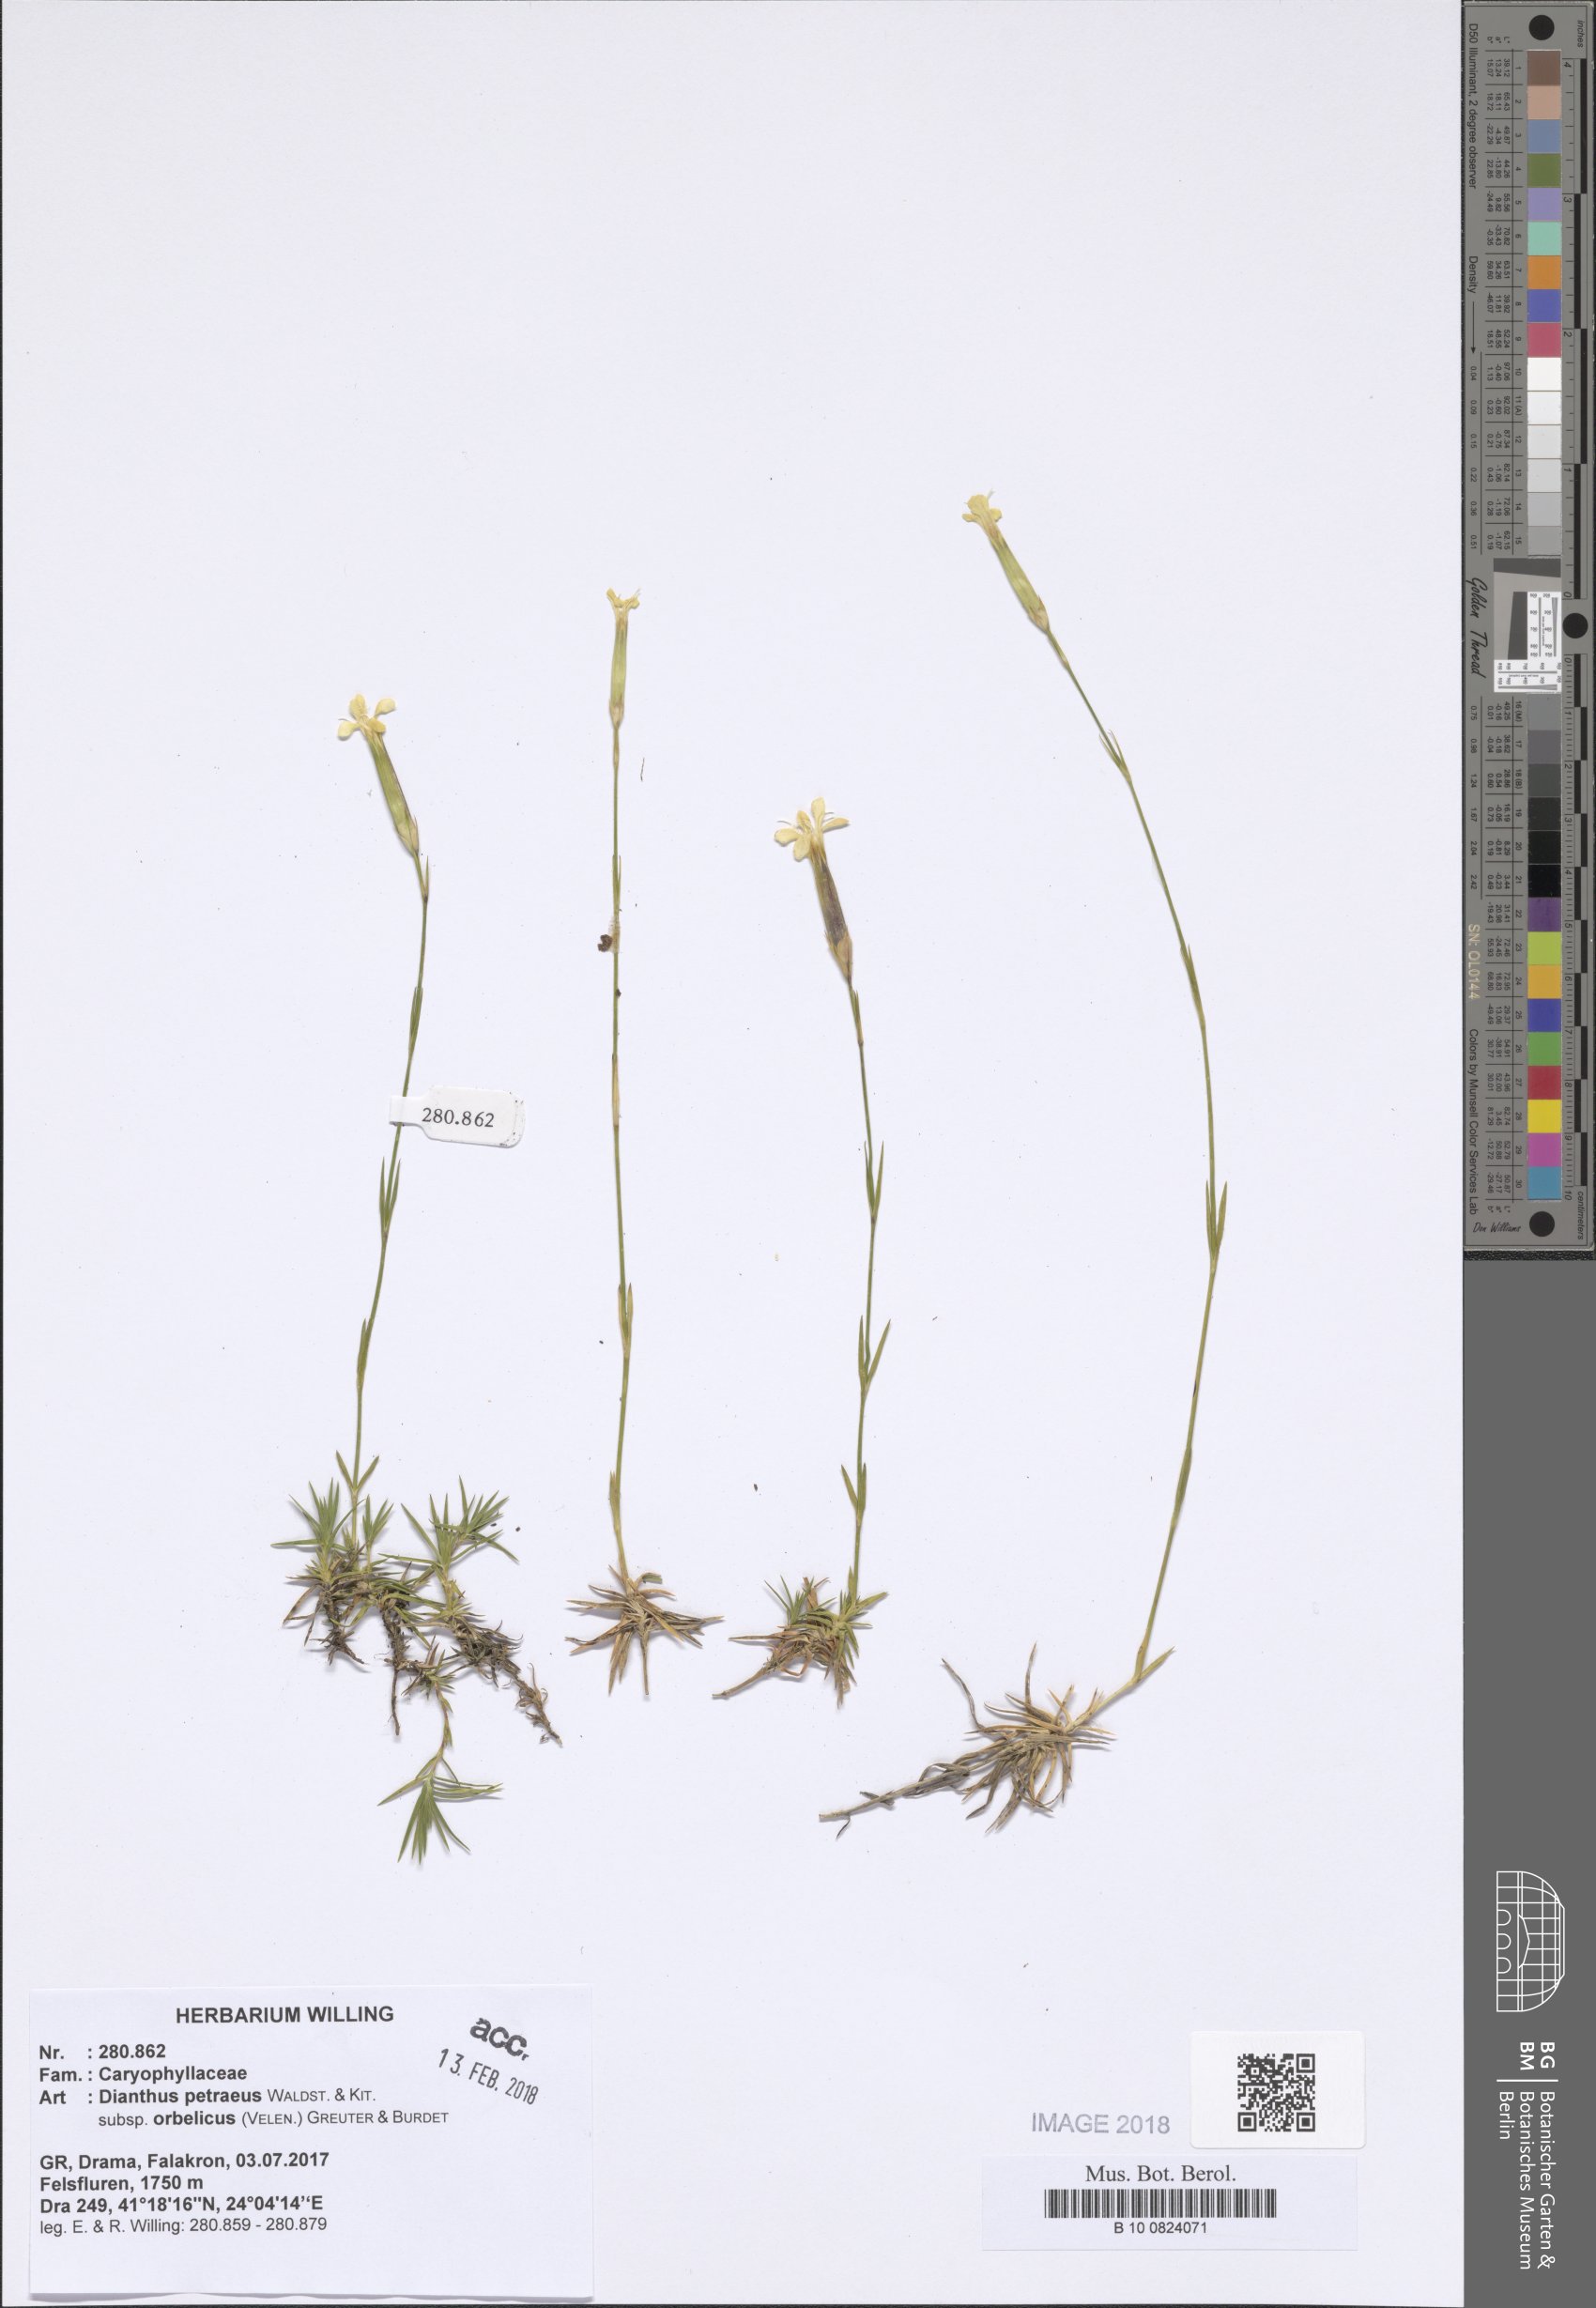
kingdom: Plantae
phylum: Tracheophyta
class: Magnoliopsida
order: Caryophyllales
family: Caryophyllaceae
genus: Dianthus
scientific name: Dianthus petraeus
